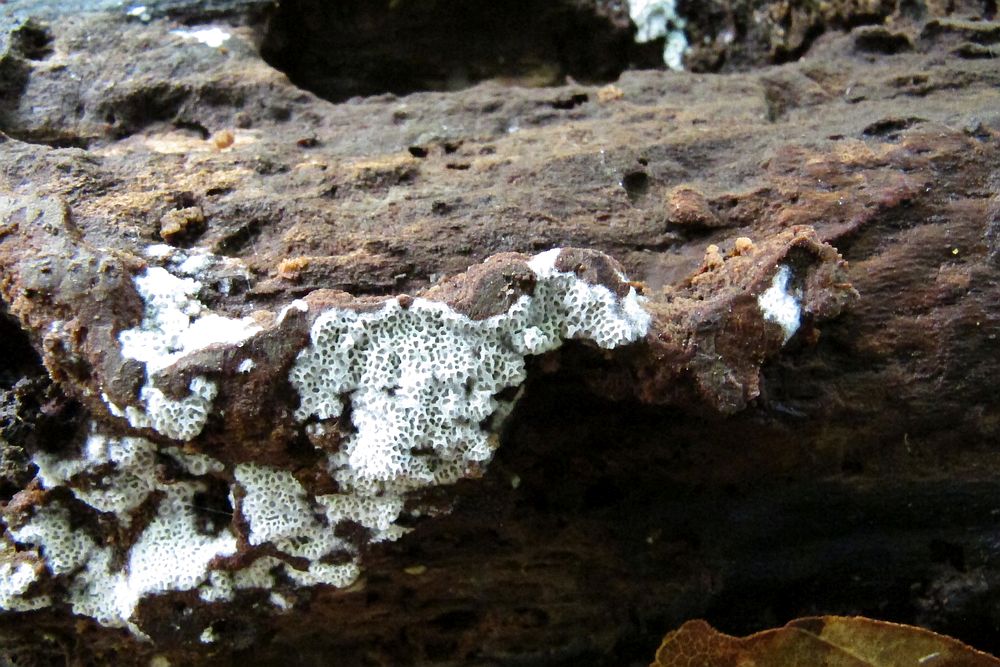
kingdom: Fungi
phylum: Basidiomycota
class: Agaricomycetes
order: Polyporales
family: Irpicaceae
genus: Ceriporia
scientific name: Ceriporia reticulata
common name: netagtig voksporesvamp
